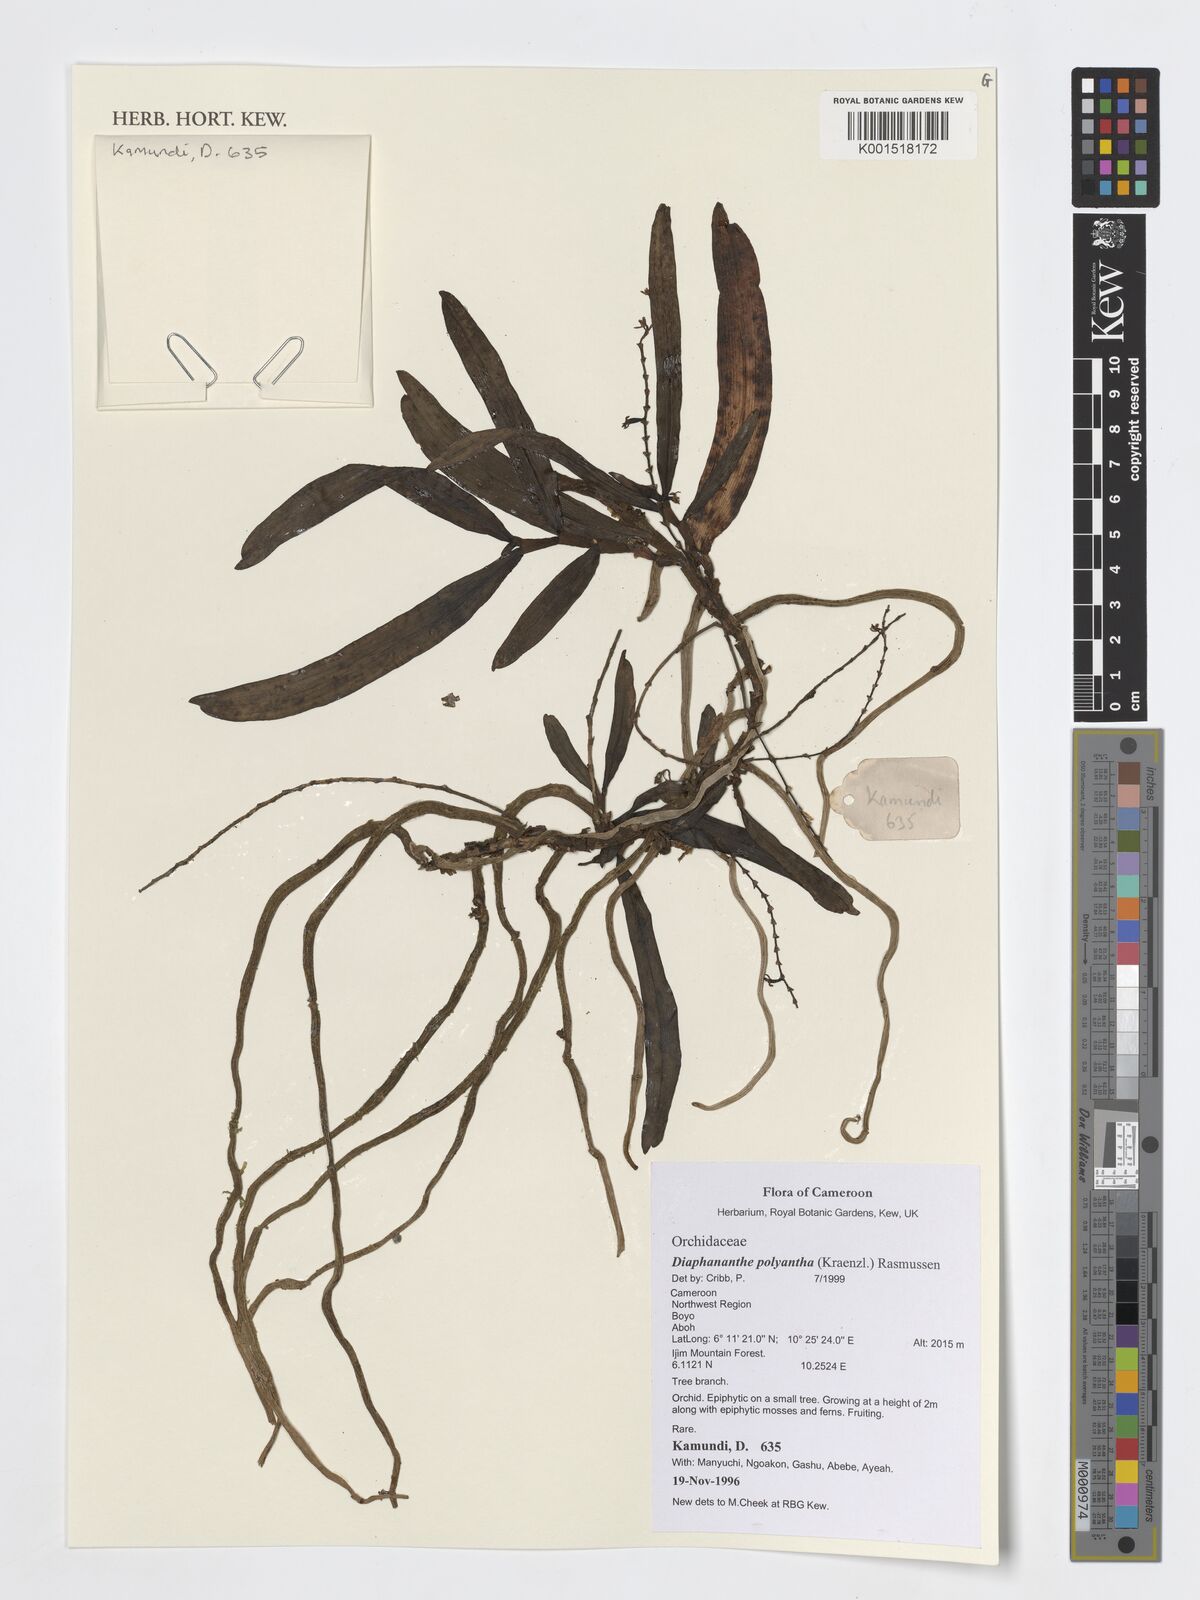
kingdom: Plantae
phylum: Tracheophyta
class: Liliopsida
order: Asparagales
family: Orchidaceae
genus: Rhipidoglossum
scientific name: Rhipidoglossum polyanthum
